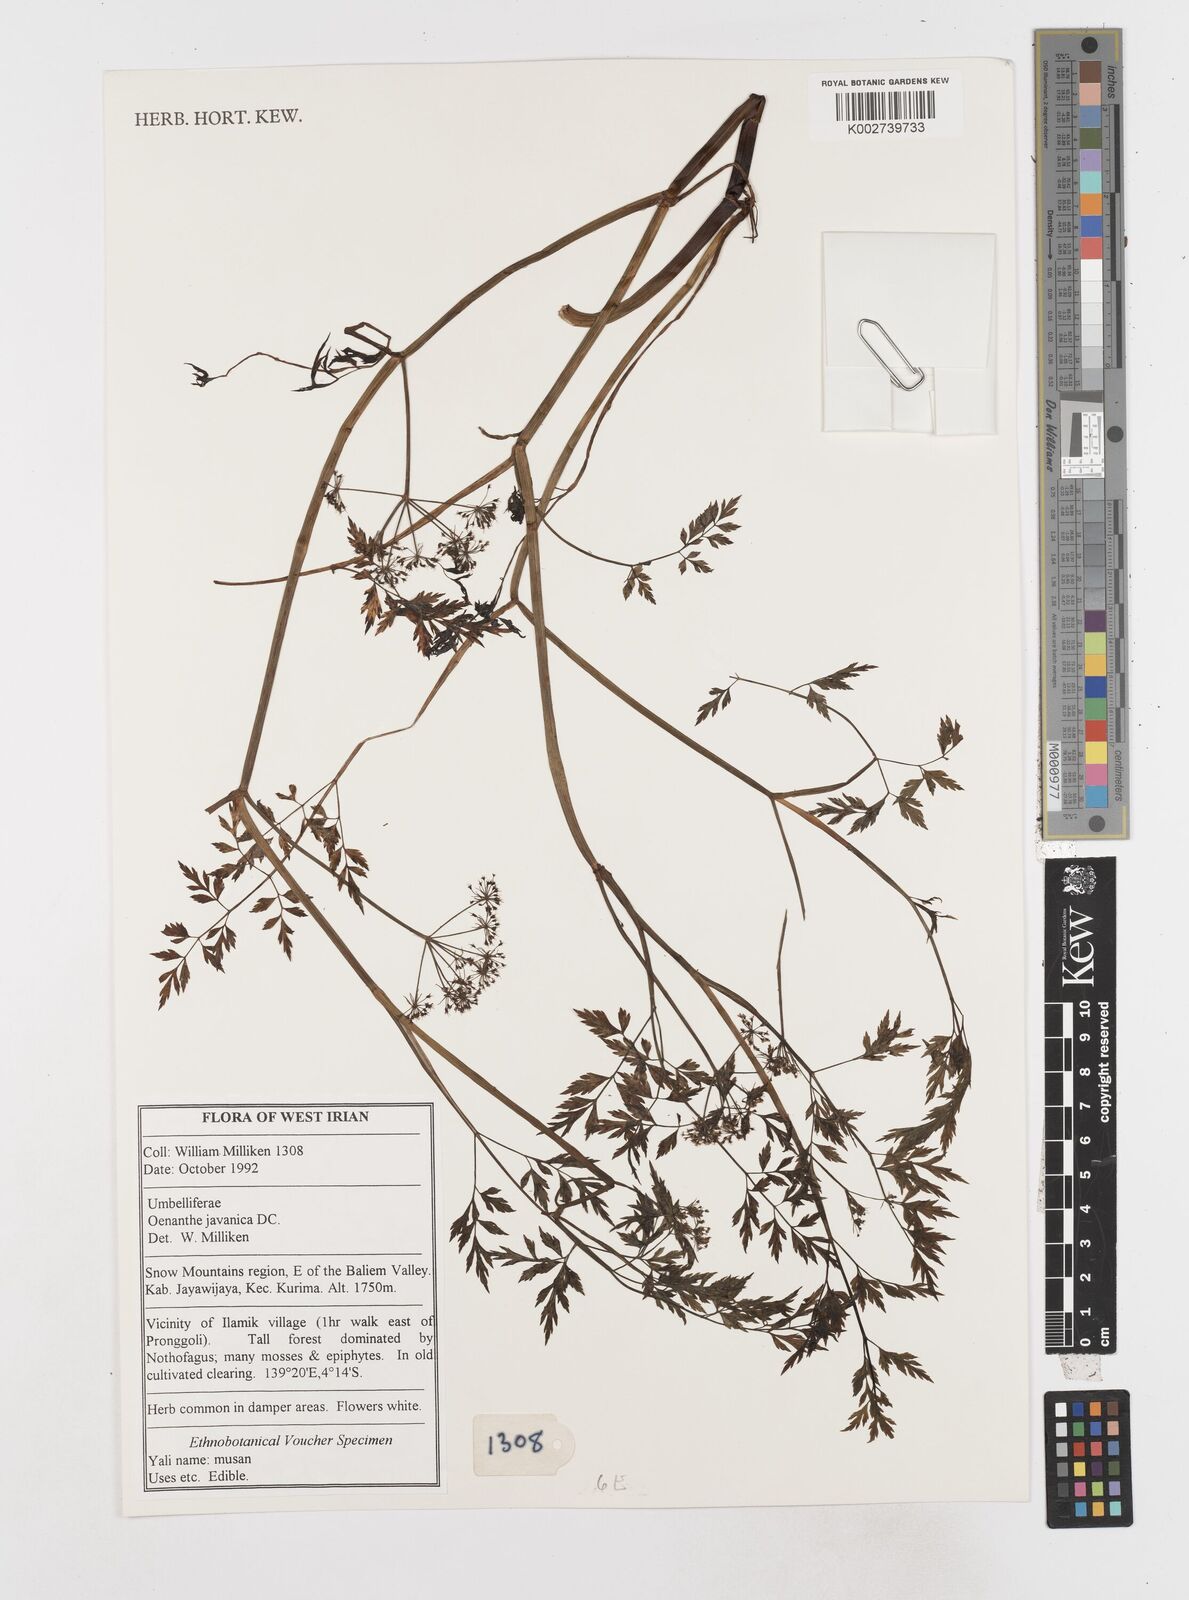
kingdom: Plantae
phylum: Tracheophyta
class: Magnoliopsida
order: Apiales
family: Apiaceae
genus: Oenanthe
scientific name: Oenanthe javanica
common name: Java water-dropwort
